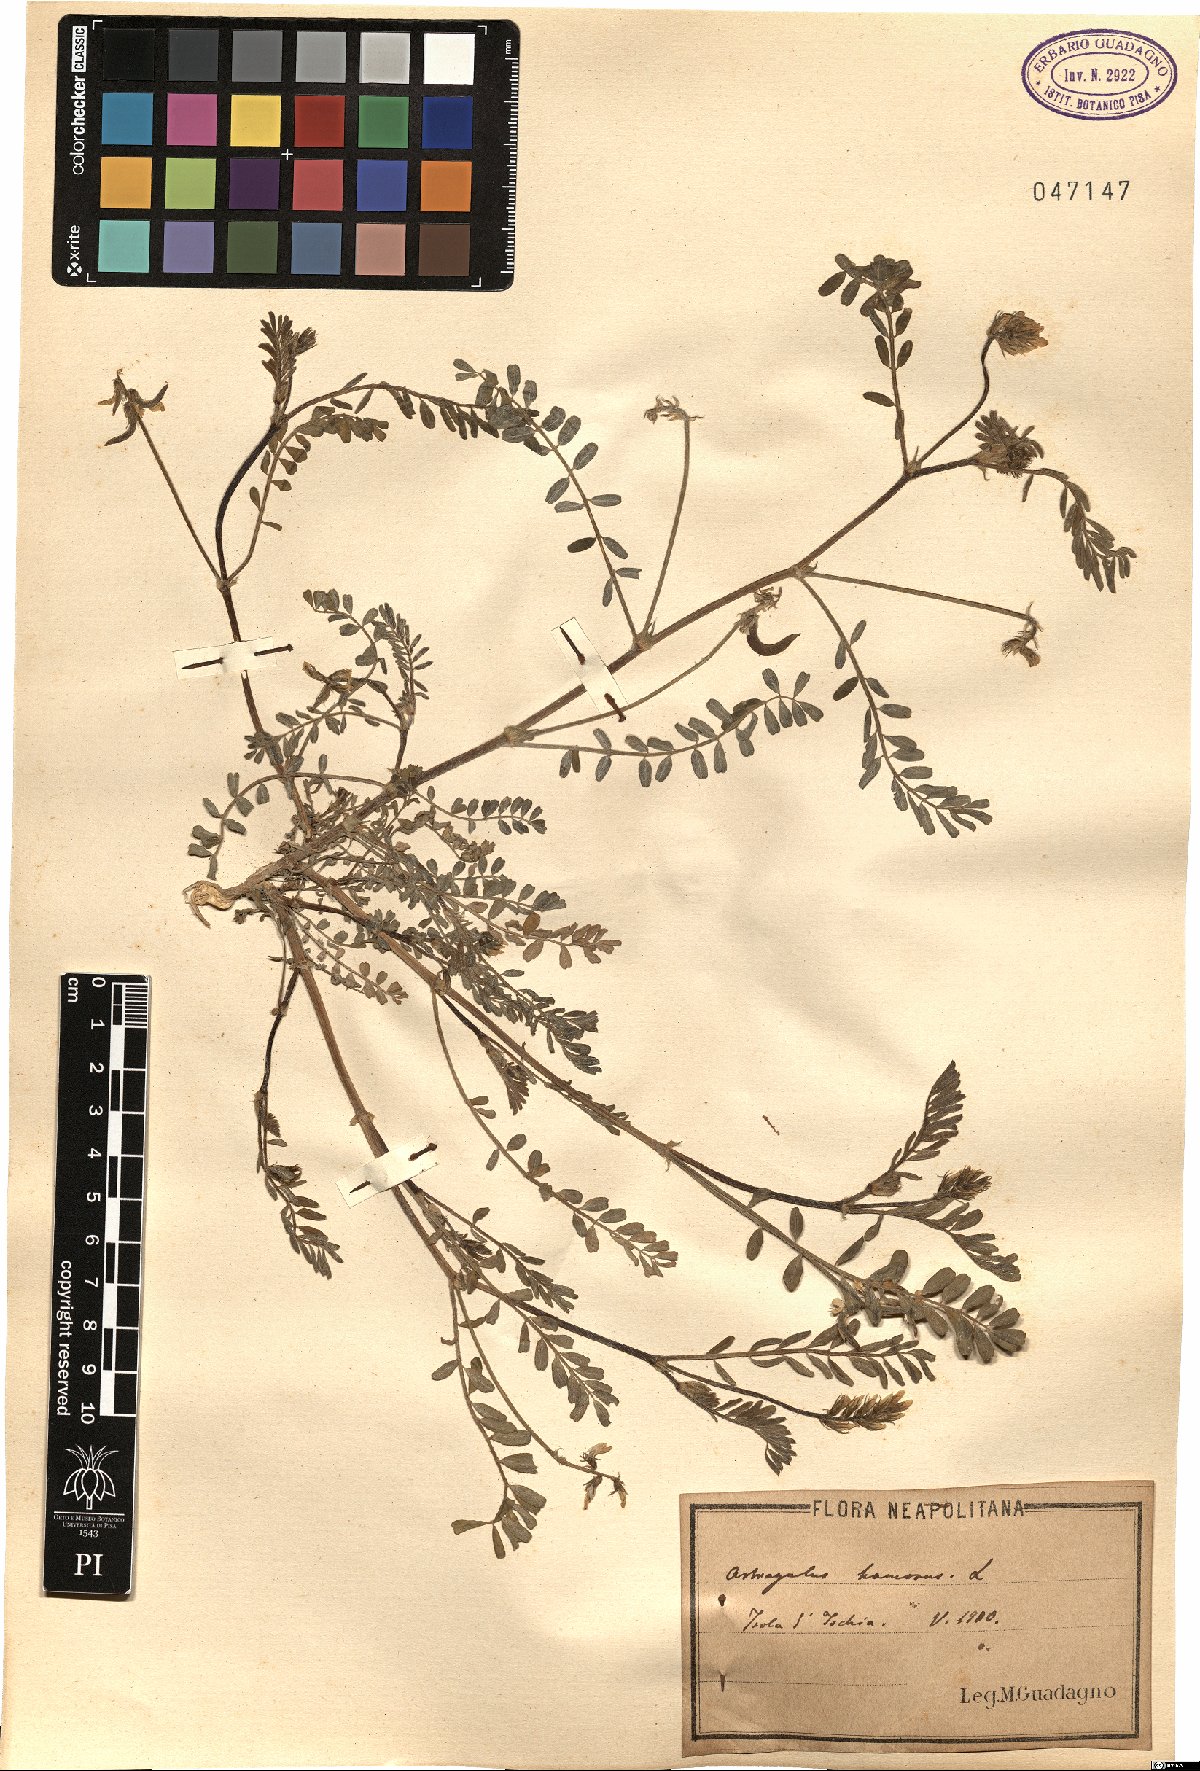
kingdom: Plantae
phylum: Tracheophyta
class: Magnoliopsida
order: Fabales
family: Fabaceae
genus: Astragalus
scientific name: Astragalus hamosus
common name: European milkvetch
